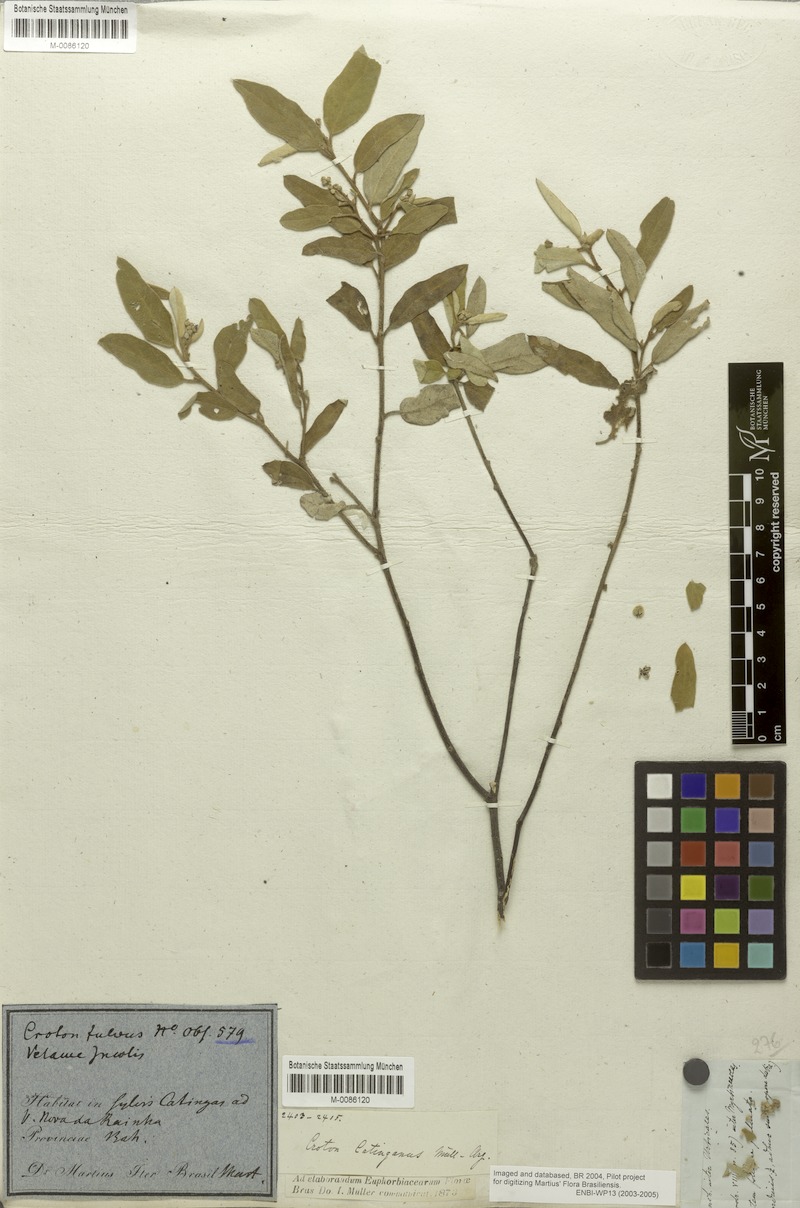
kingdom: Plantae
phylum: Tracheophyta
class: Magnoliopsida
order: Malpighiales
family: Euphorbiaceae
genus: Croton
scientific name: Croton catinganus
